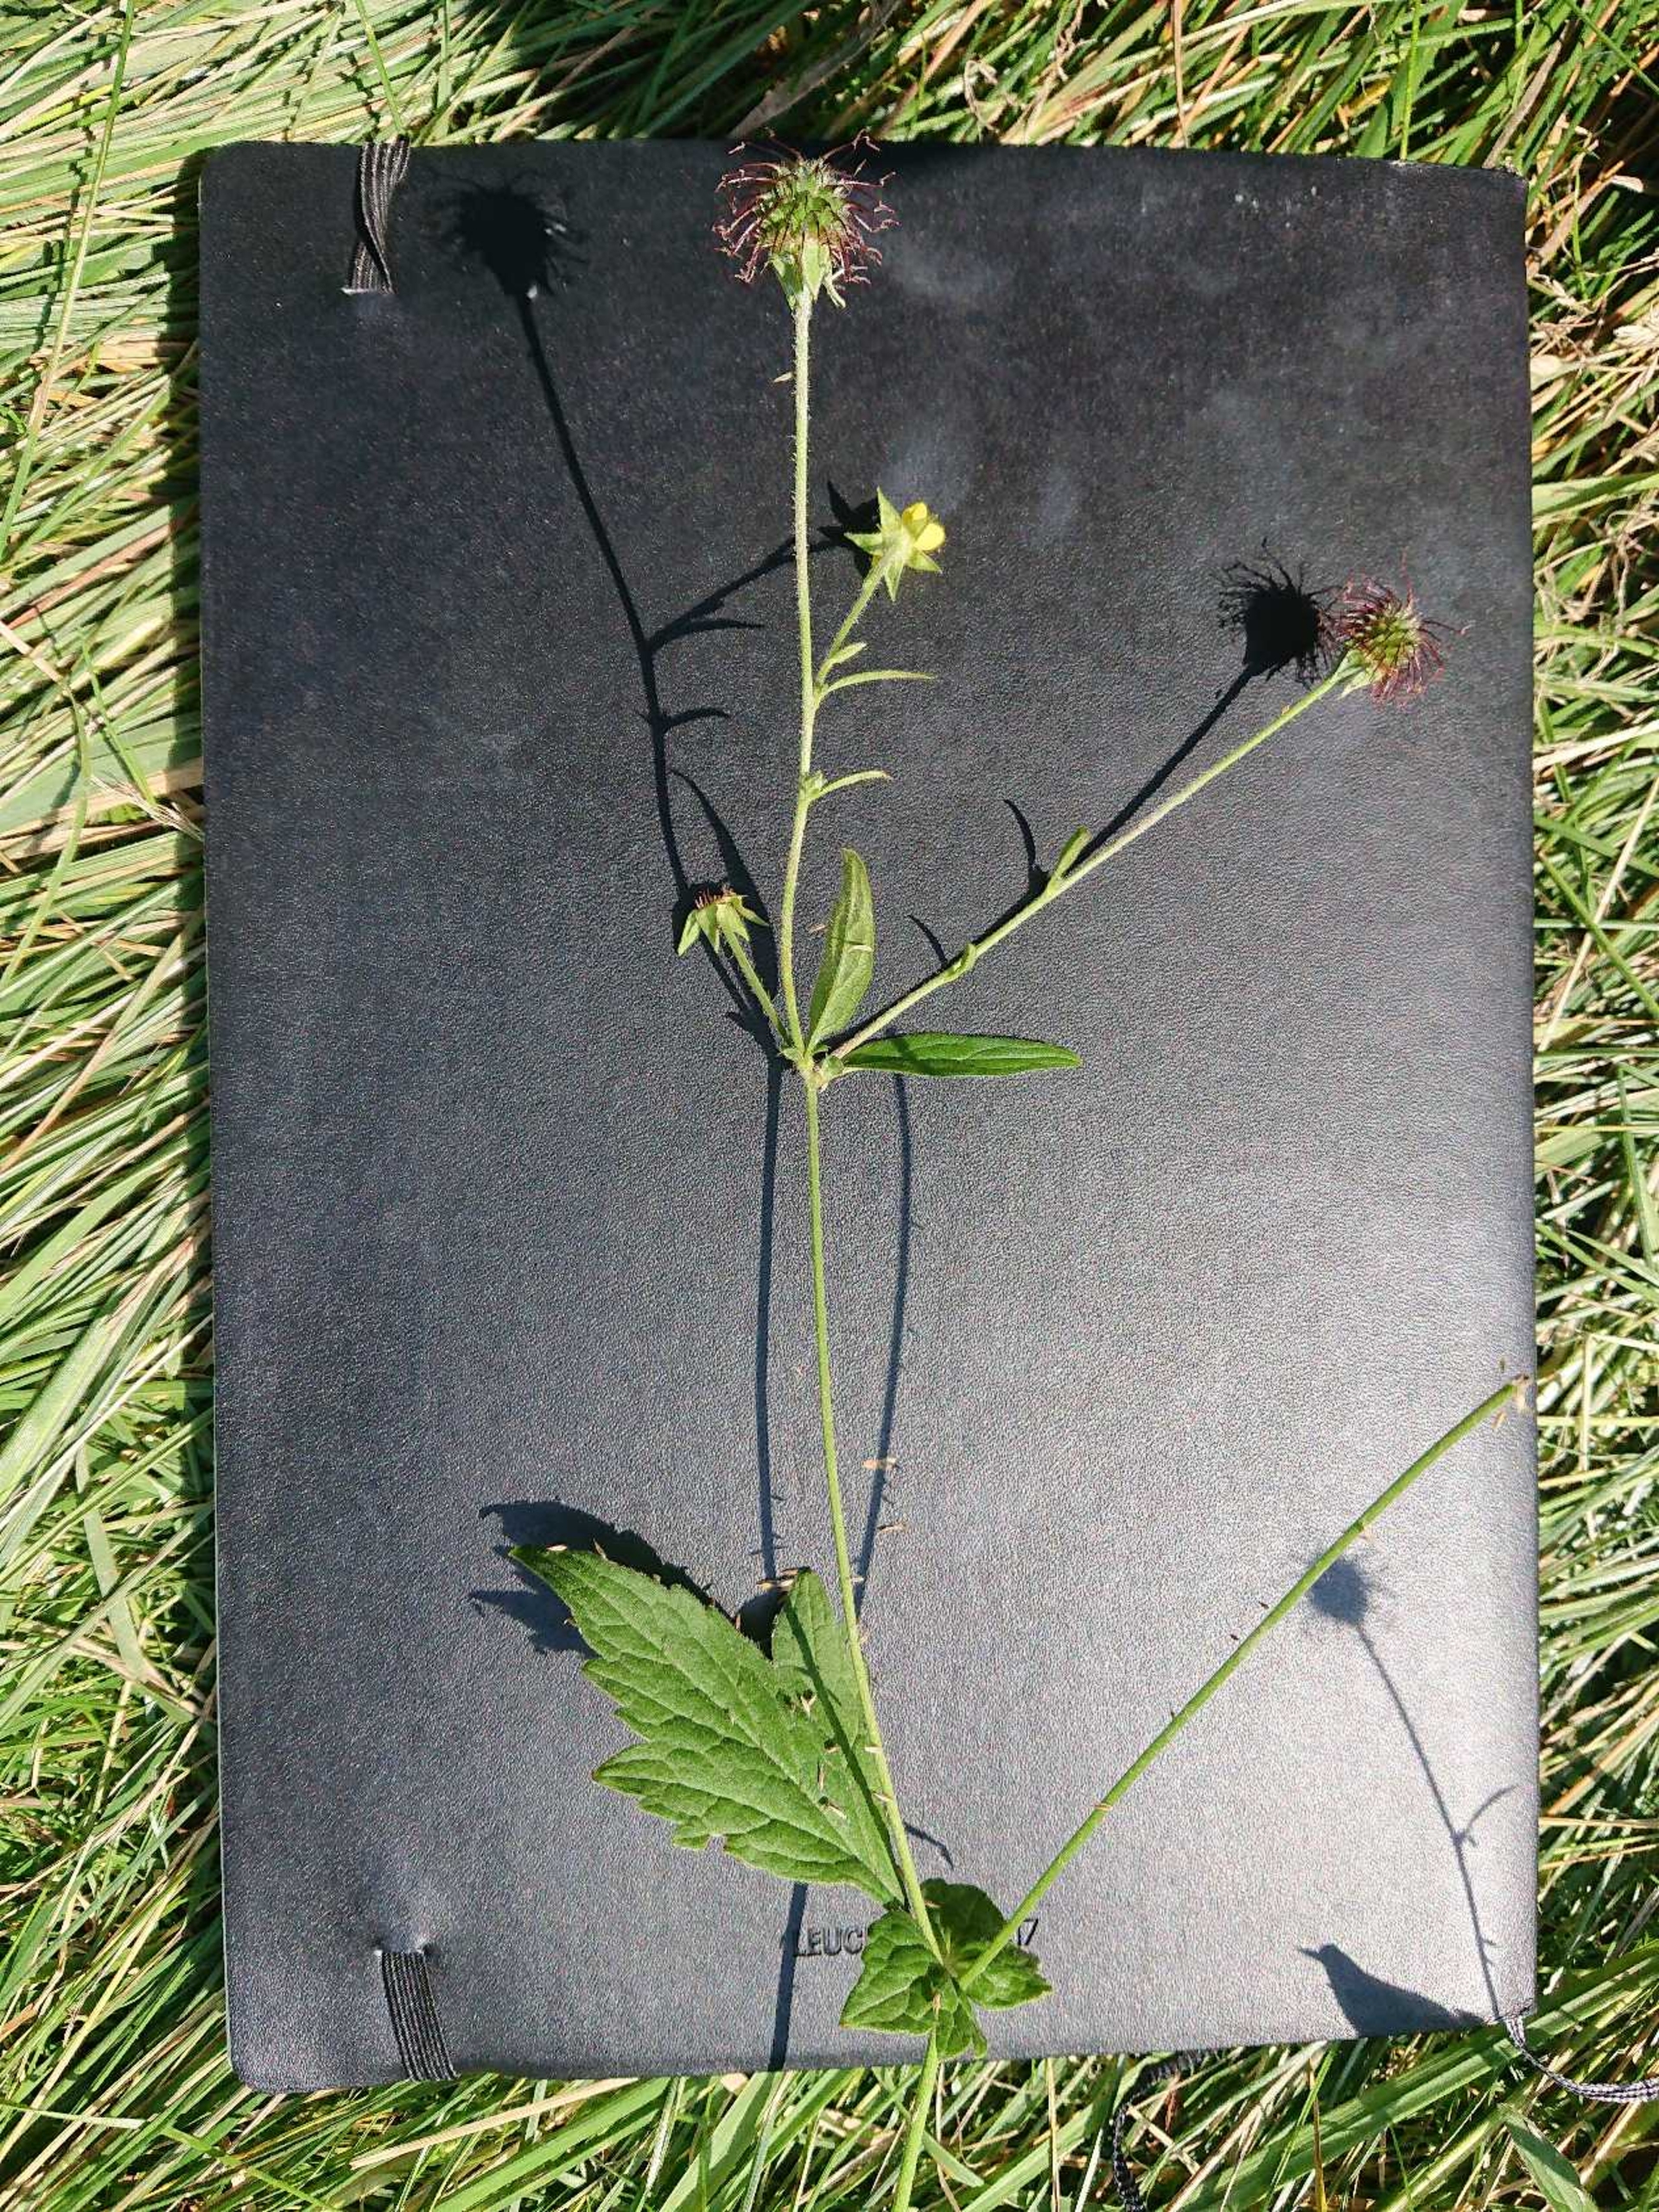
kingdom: Plantae
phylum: Tracheophyta
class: Magnoliopsida
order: Rosales
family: Rosaceae
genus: Geum
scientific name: Geum urbanum
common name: Feber-nellikerod
